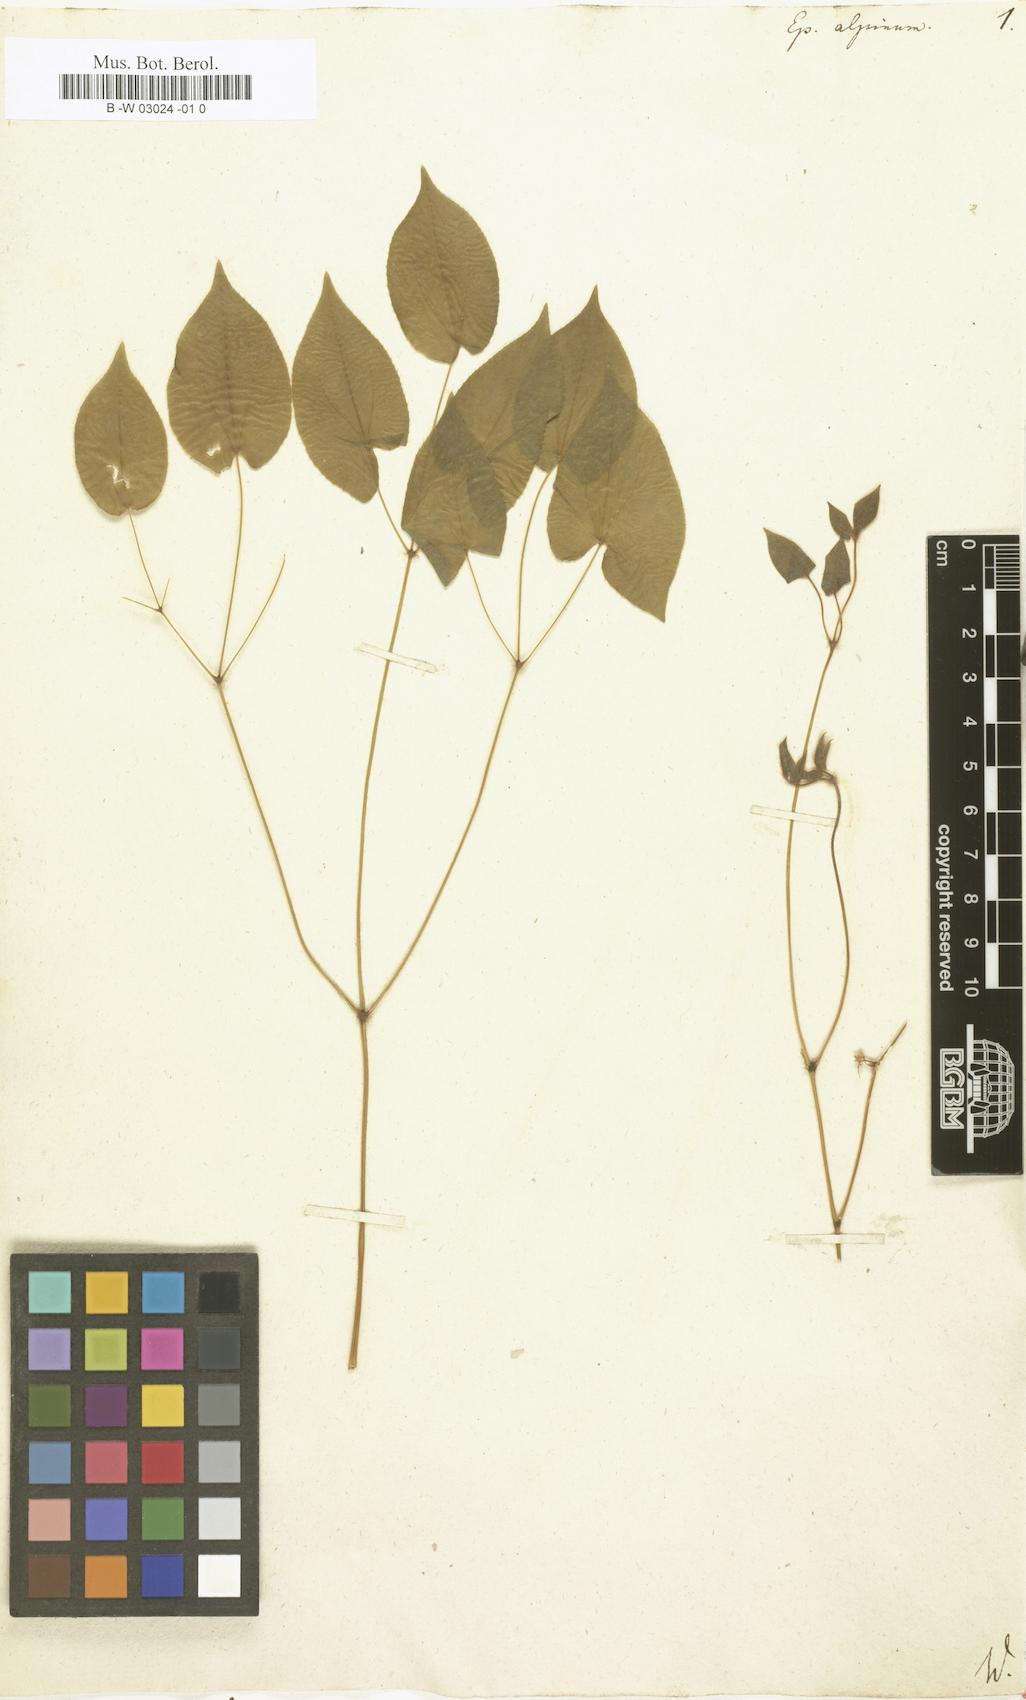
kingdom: Plantae
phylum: Tracheophyta
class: Magnoliopsida
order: Ranunculales
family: Berberidaceae
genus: Epimedium
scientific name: Epimedium alpinum
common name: Barrenwort
